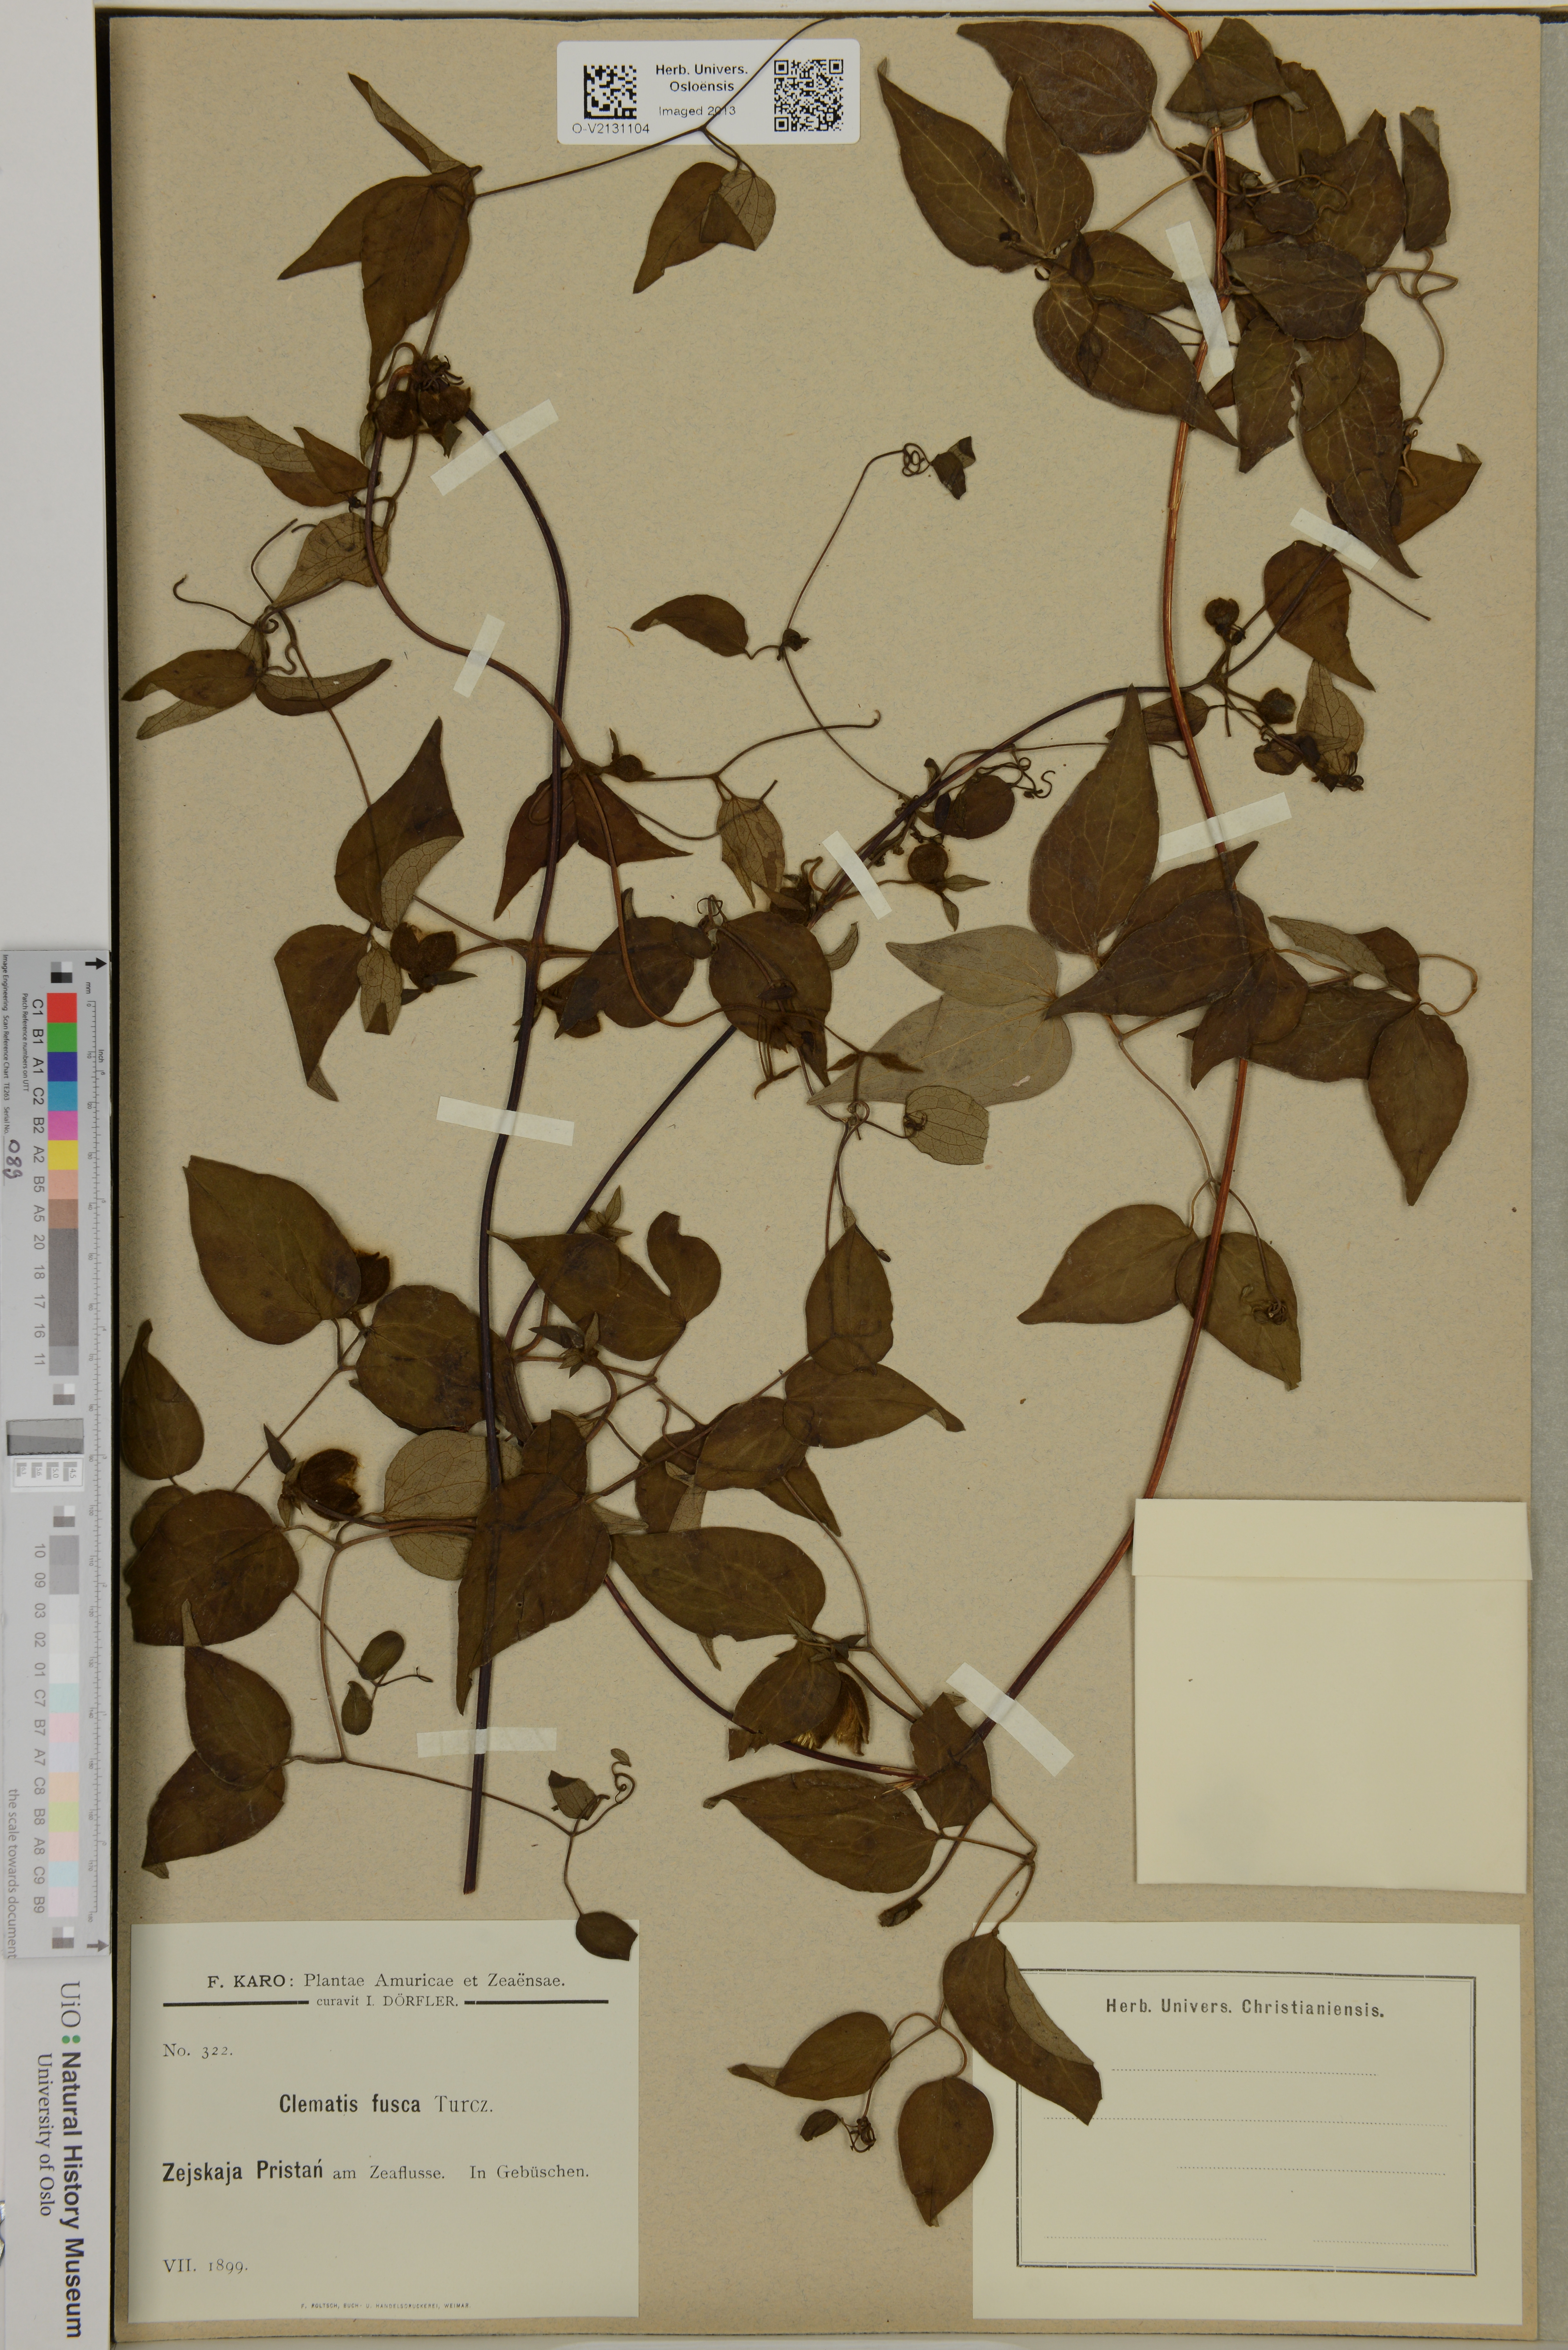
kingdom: Plantae
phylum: Tracheophyta
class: Magnoliopsida
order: Ranunculales
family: Ranunculaceae
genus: Clematis
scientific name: Clematis fusca
